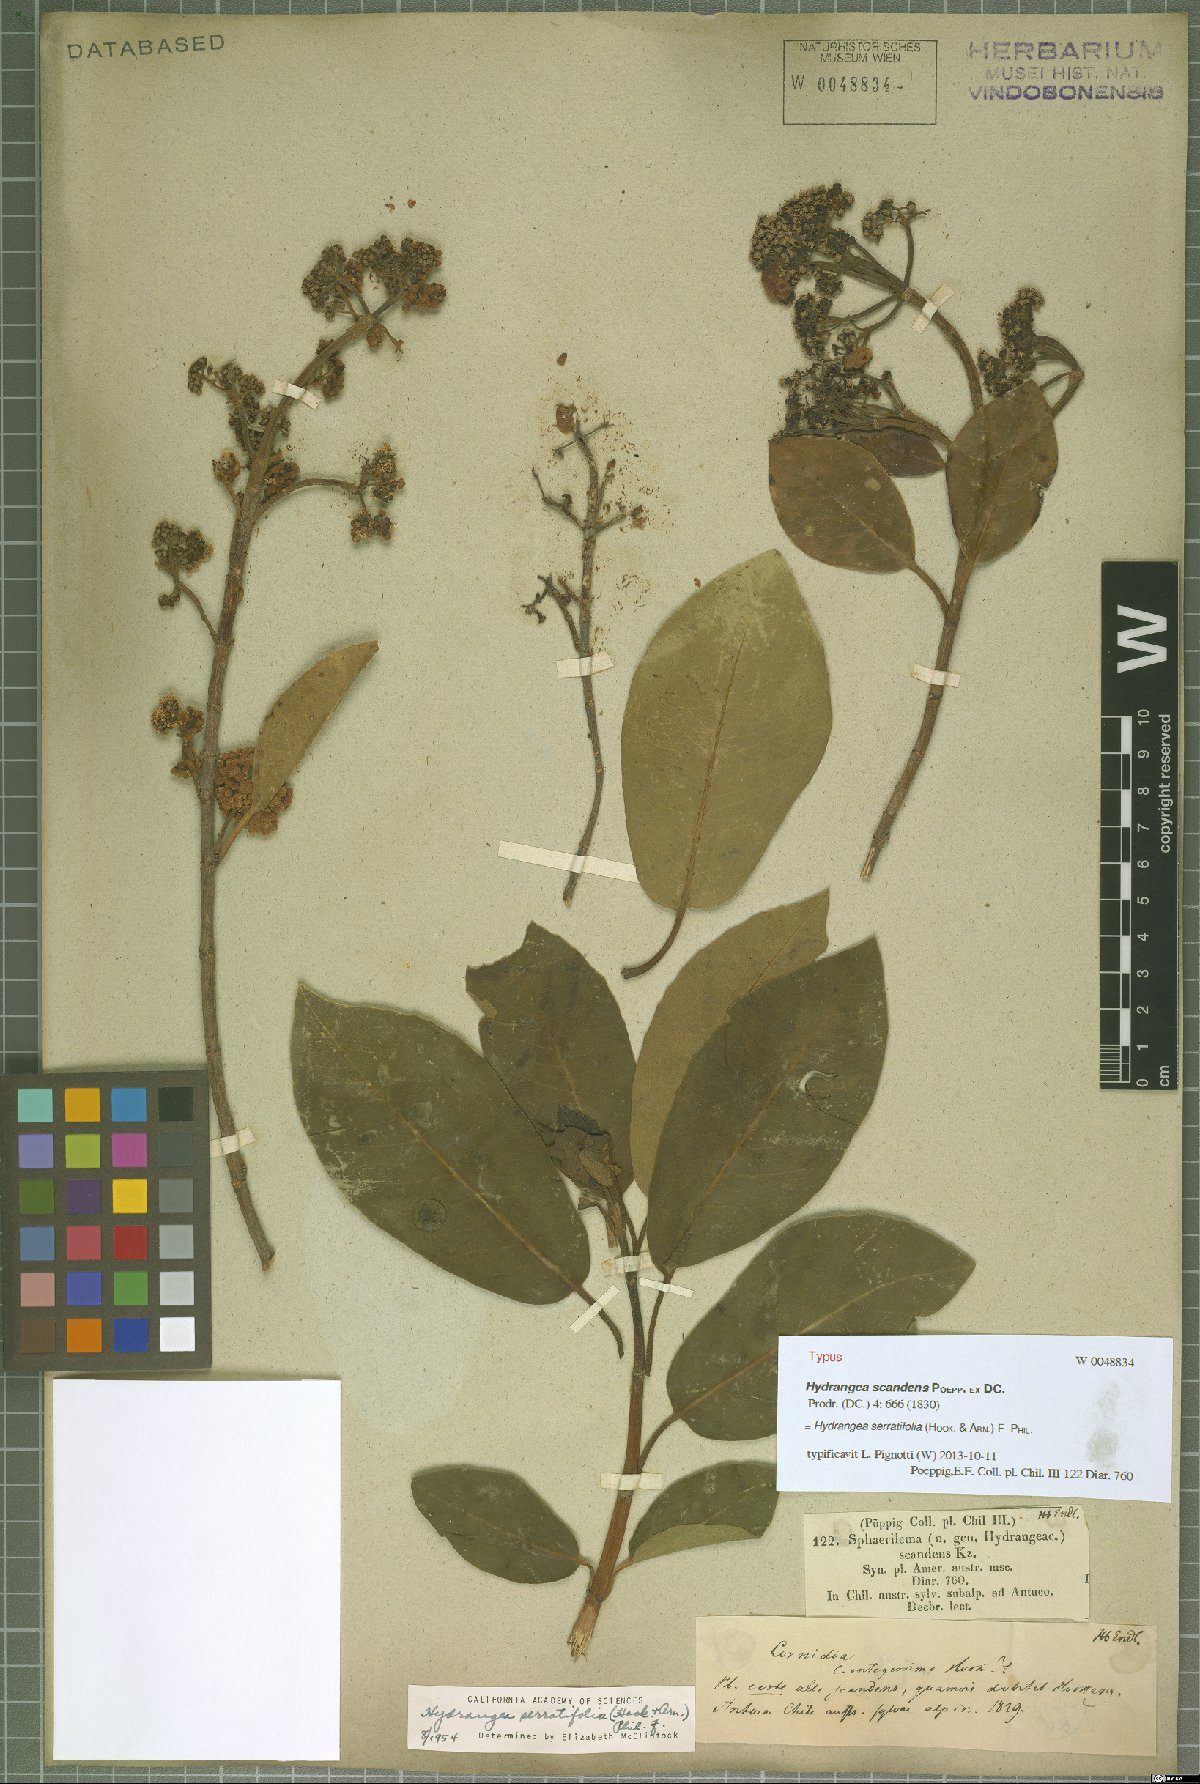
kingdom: Plantae
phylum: Tracheophyta
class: Magnoliopsida
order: Cornales
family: Hydrangeaceae
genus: Hydrangea
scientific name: Hydrangea serratifolia
